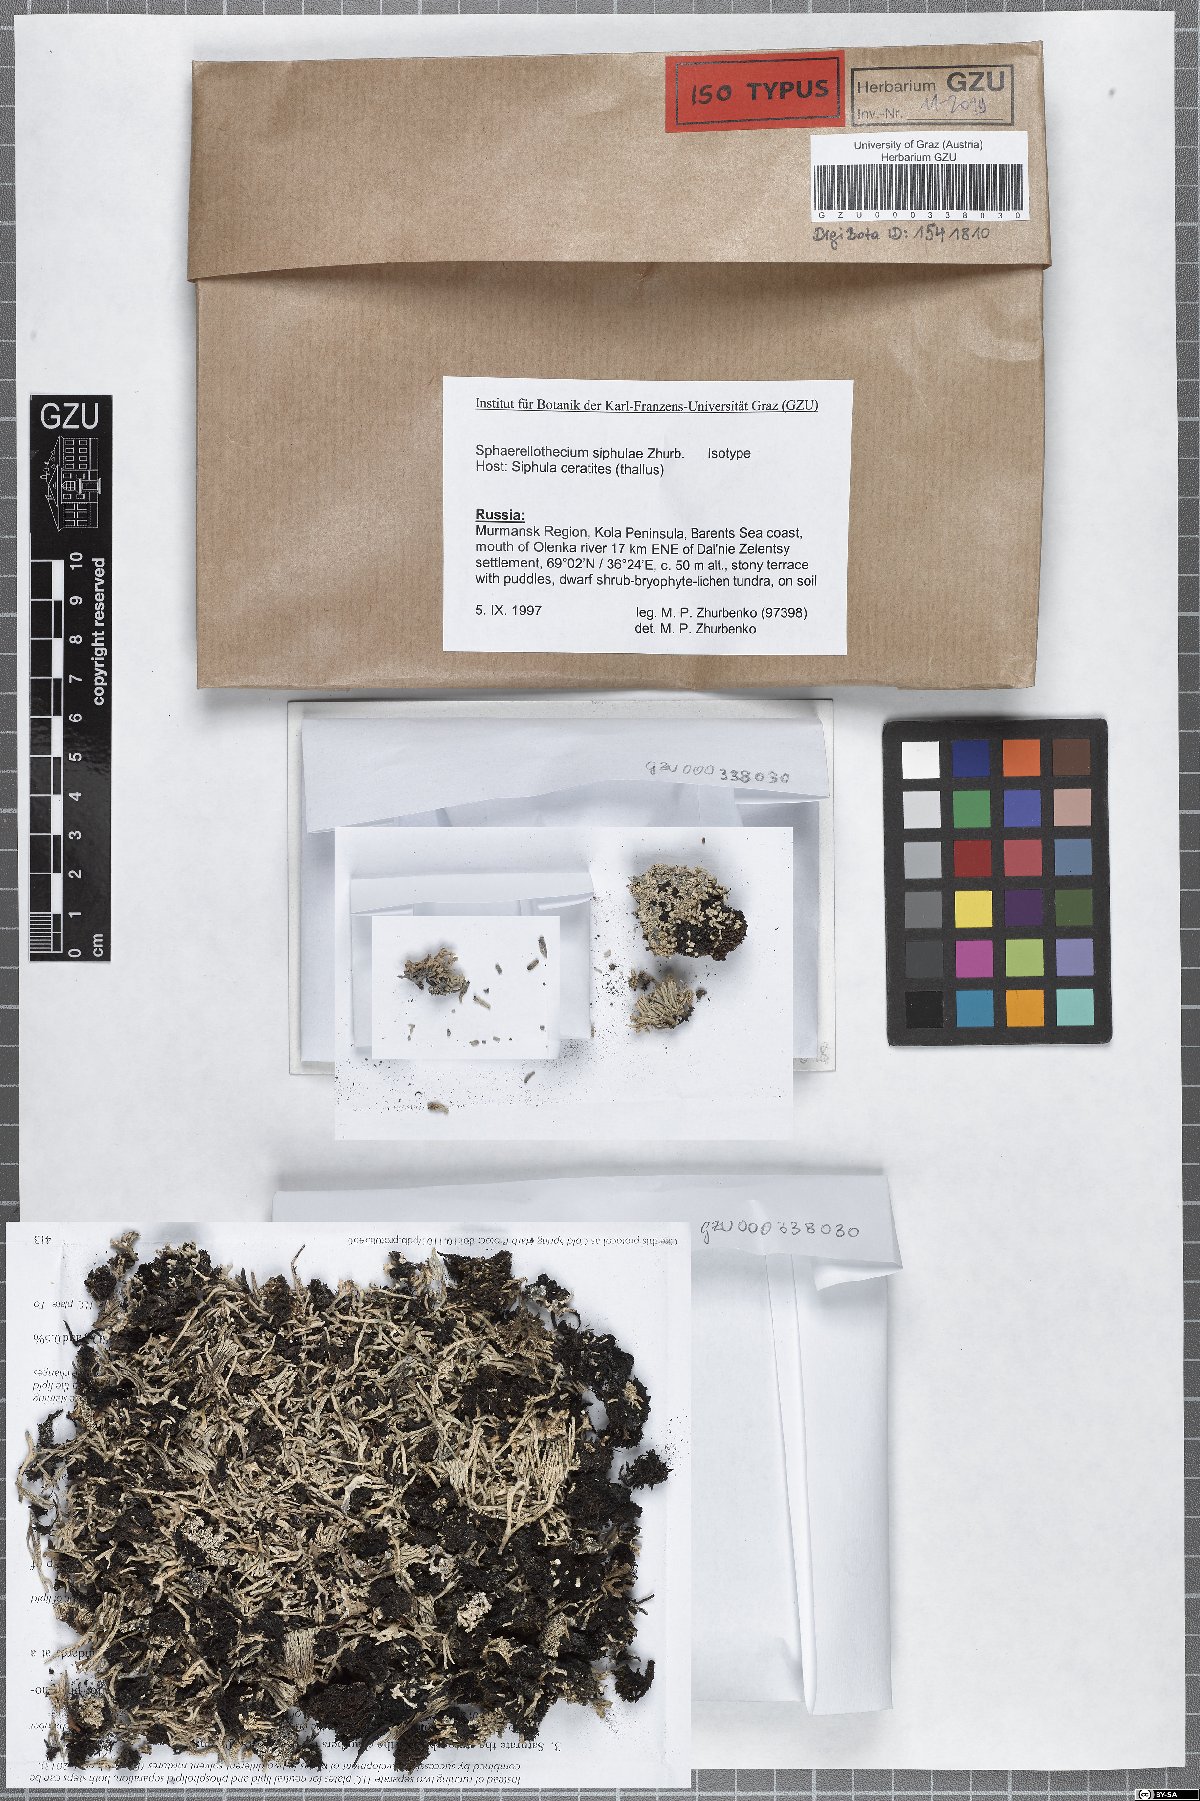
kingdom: Fungi
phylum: Ascomycota
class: Dothideomycetes
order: Mycosphaerellales
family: Mycosphaerellaceae
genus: Sphaerellothecium
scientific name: Sphaerellothecium siphulae
